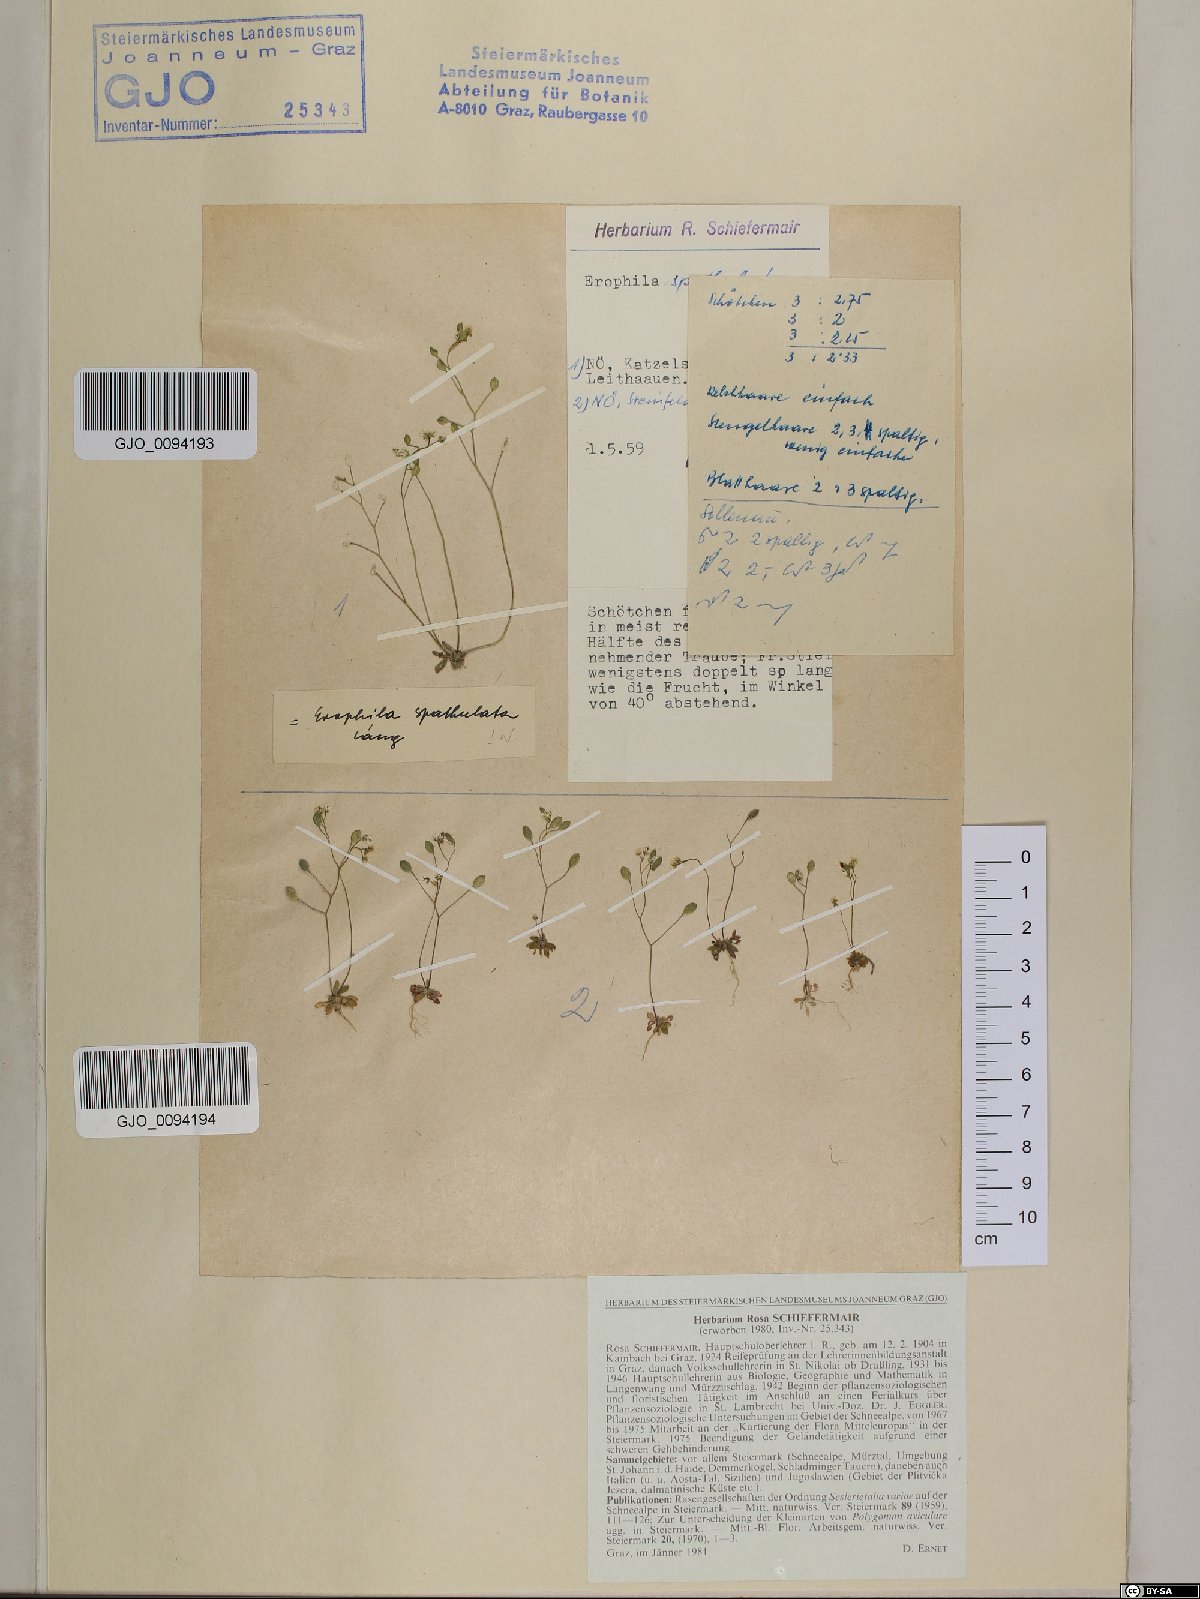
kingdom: Plantae
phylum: Tracheophyta
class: Magnoliopsida
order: Brassicales
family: Brassicaceae
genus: Draba
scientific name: Draba verna
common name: Spring draba
